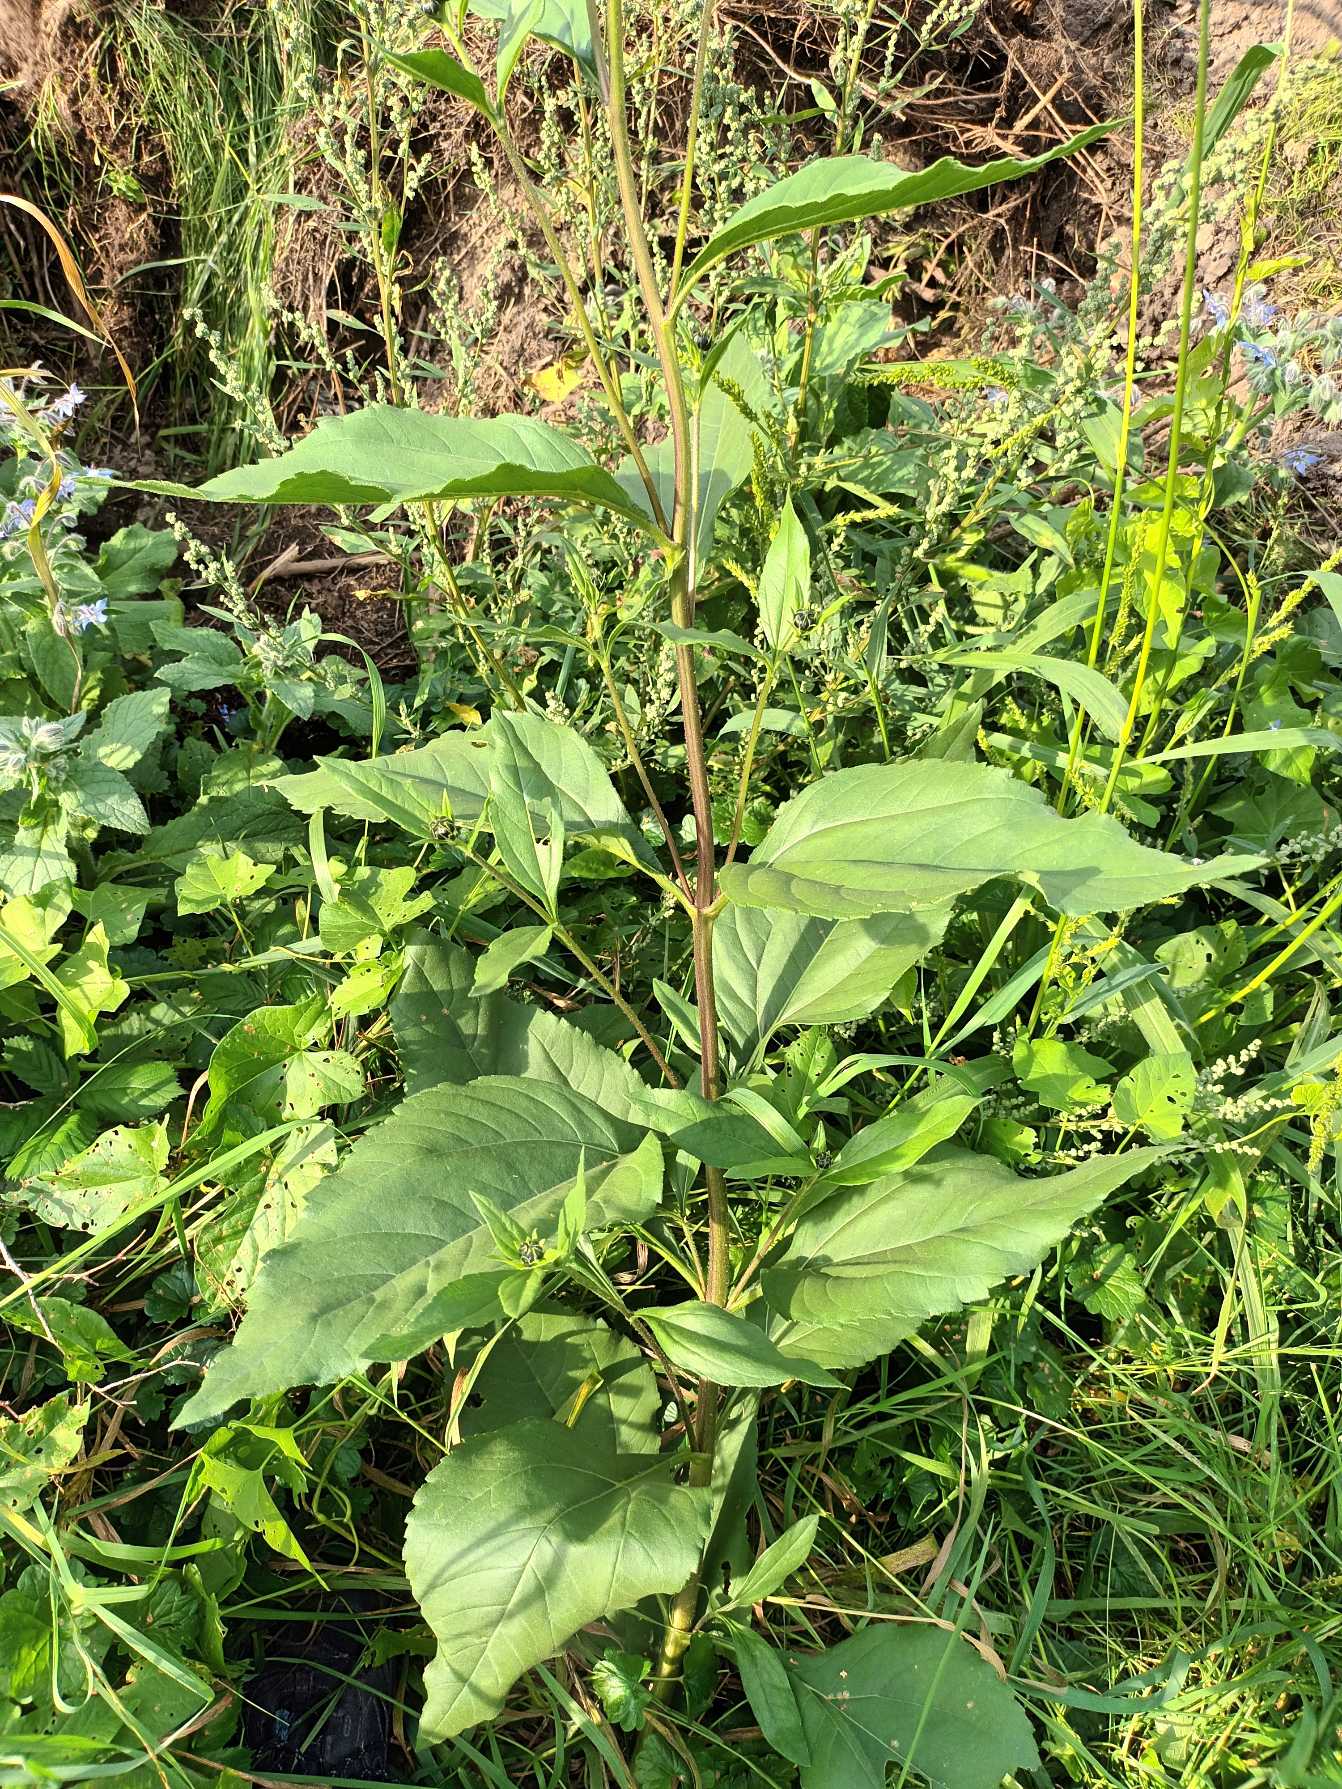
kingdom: Plantae
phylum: Tracheophyta
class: Magnoliopsida
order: Asterales
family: Asteraceae
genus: Helianthus
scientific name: Helianthus tuberosus
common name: Jordskok
